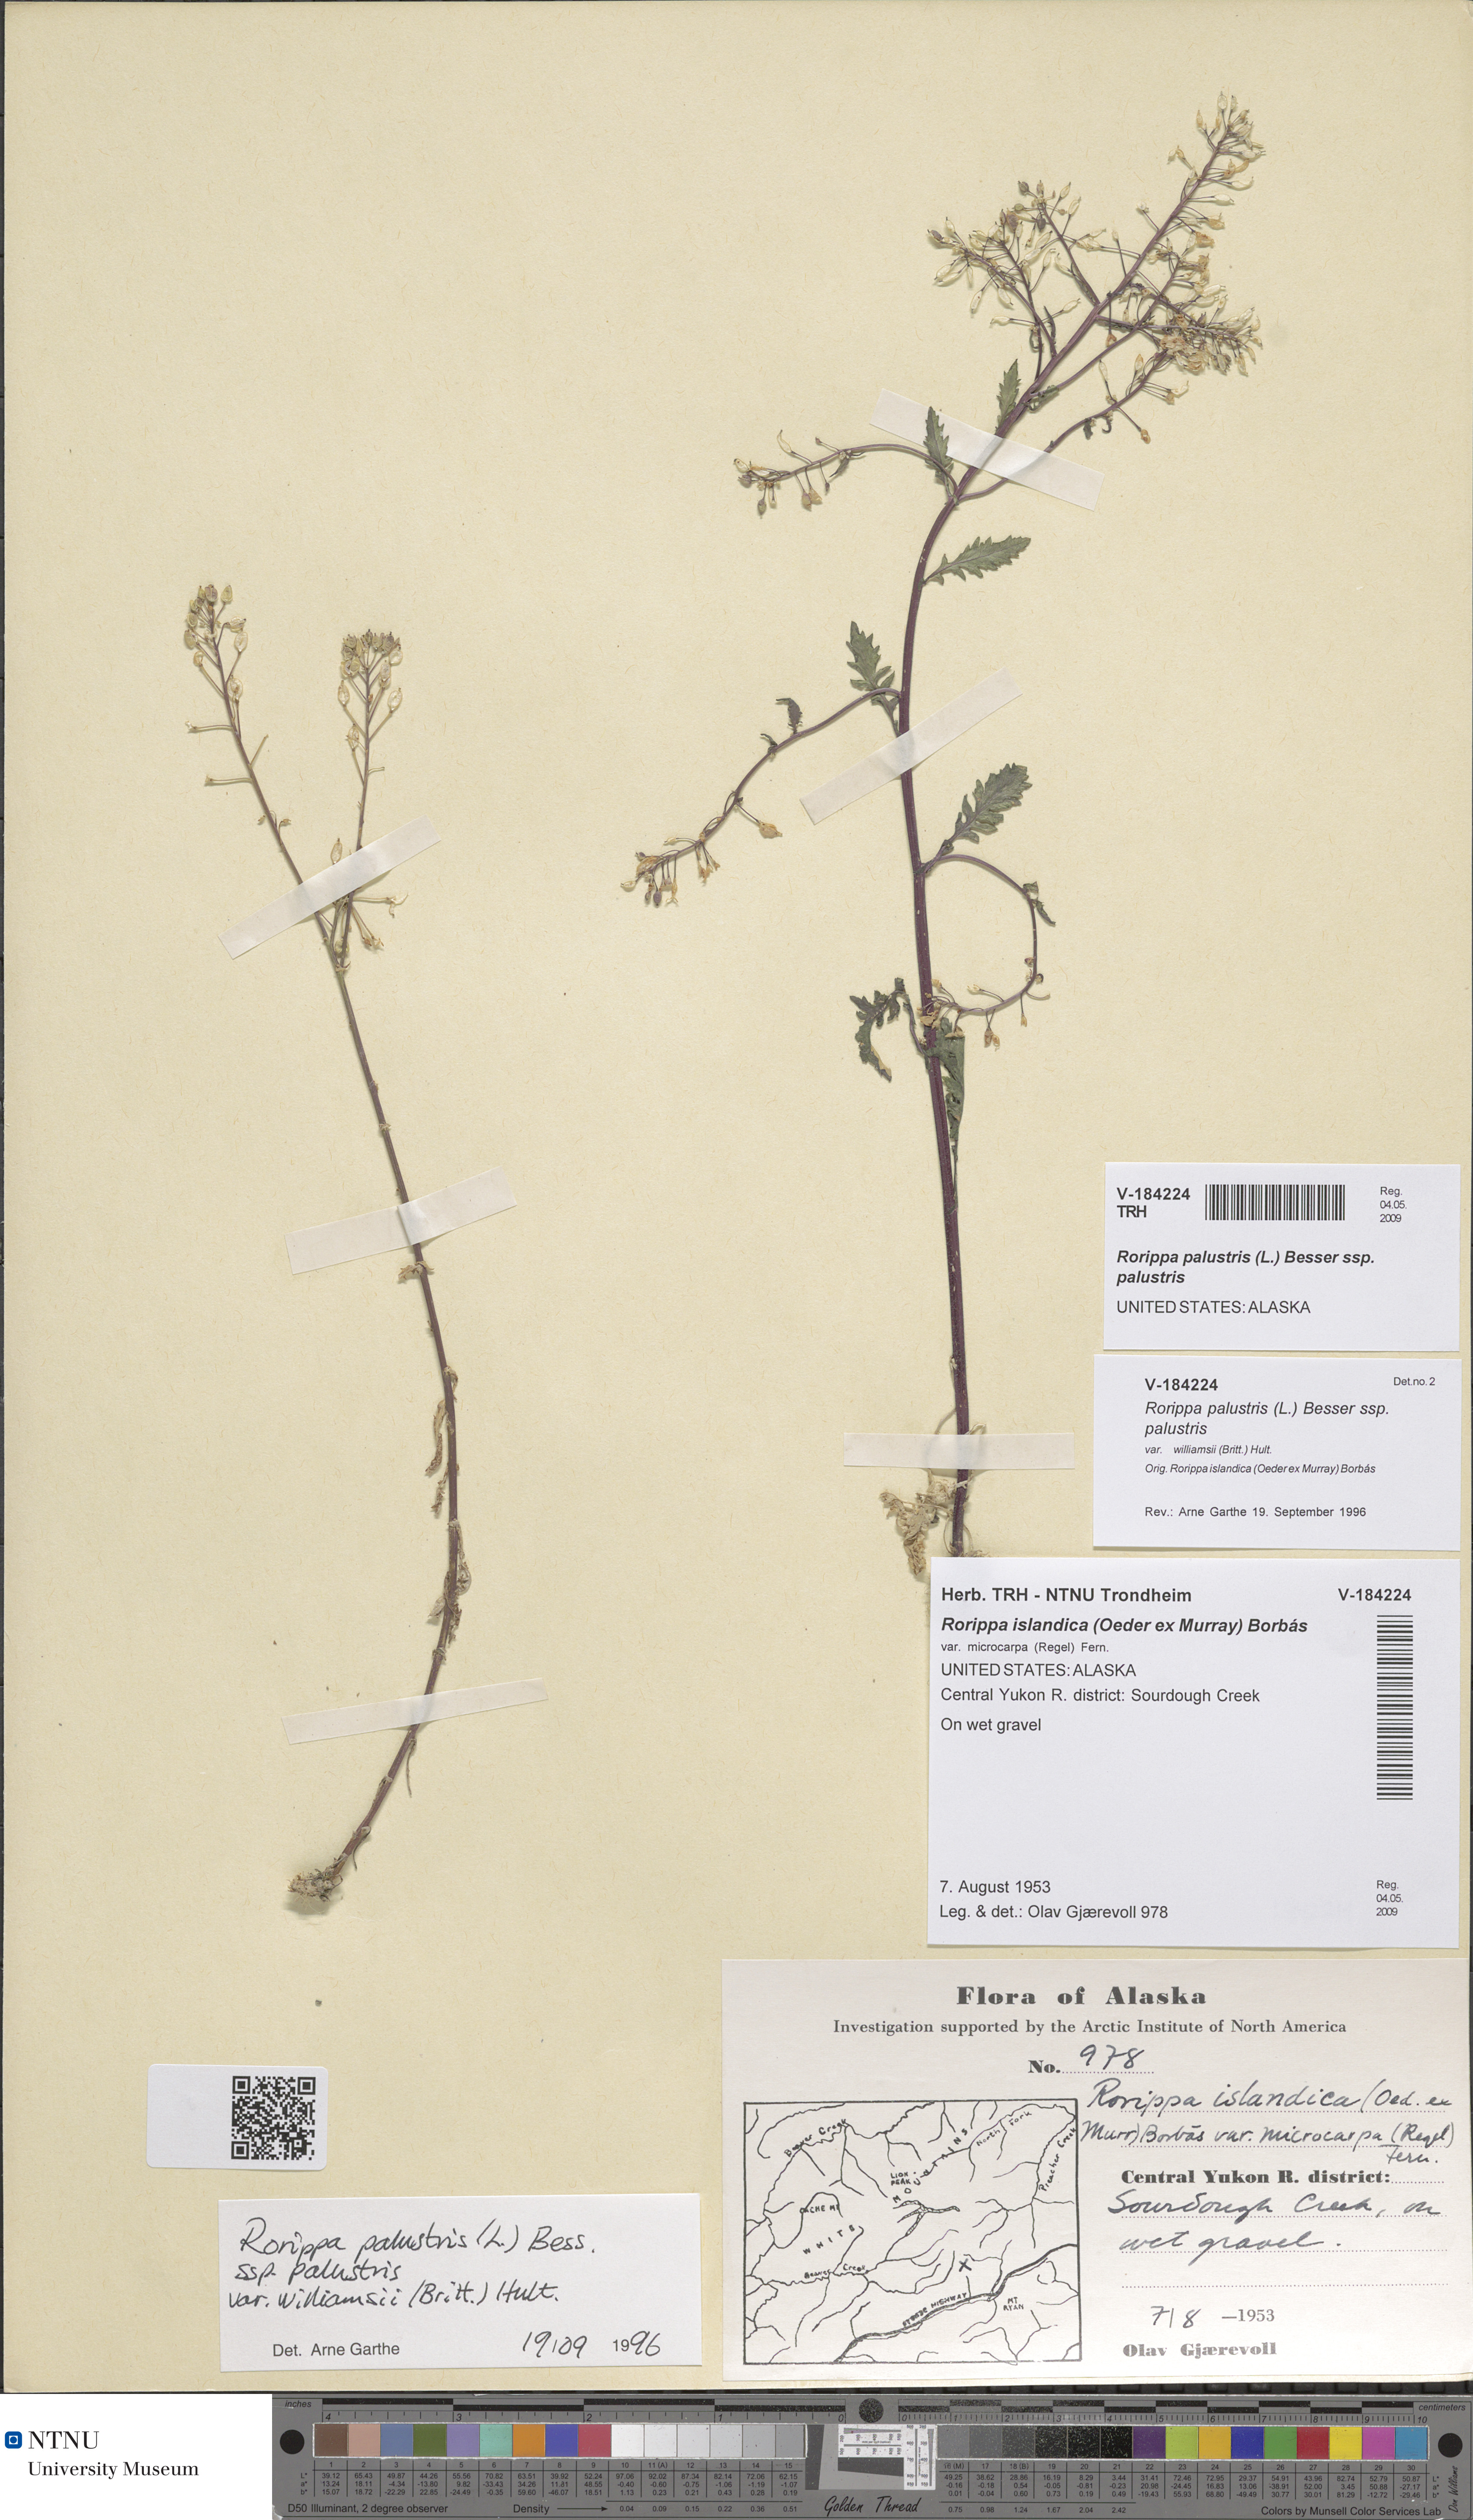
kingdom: Plantae
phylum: Tracheophyta
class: Magnoliopsida
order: Brassicales
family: Brassicaceae
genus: Rorippa
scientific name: Rorippa palustris
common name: Marsh yellow-cress
